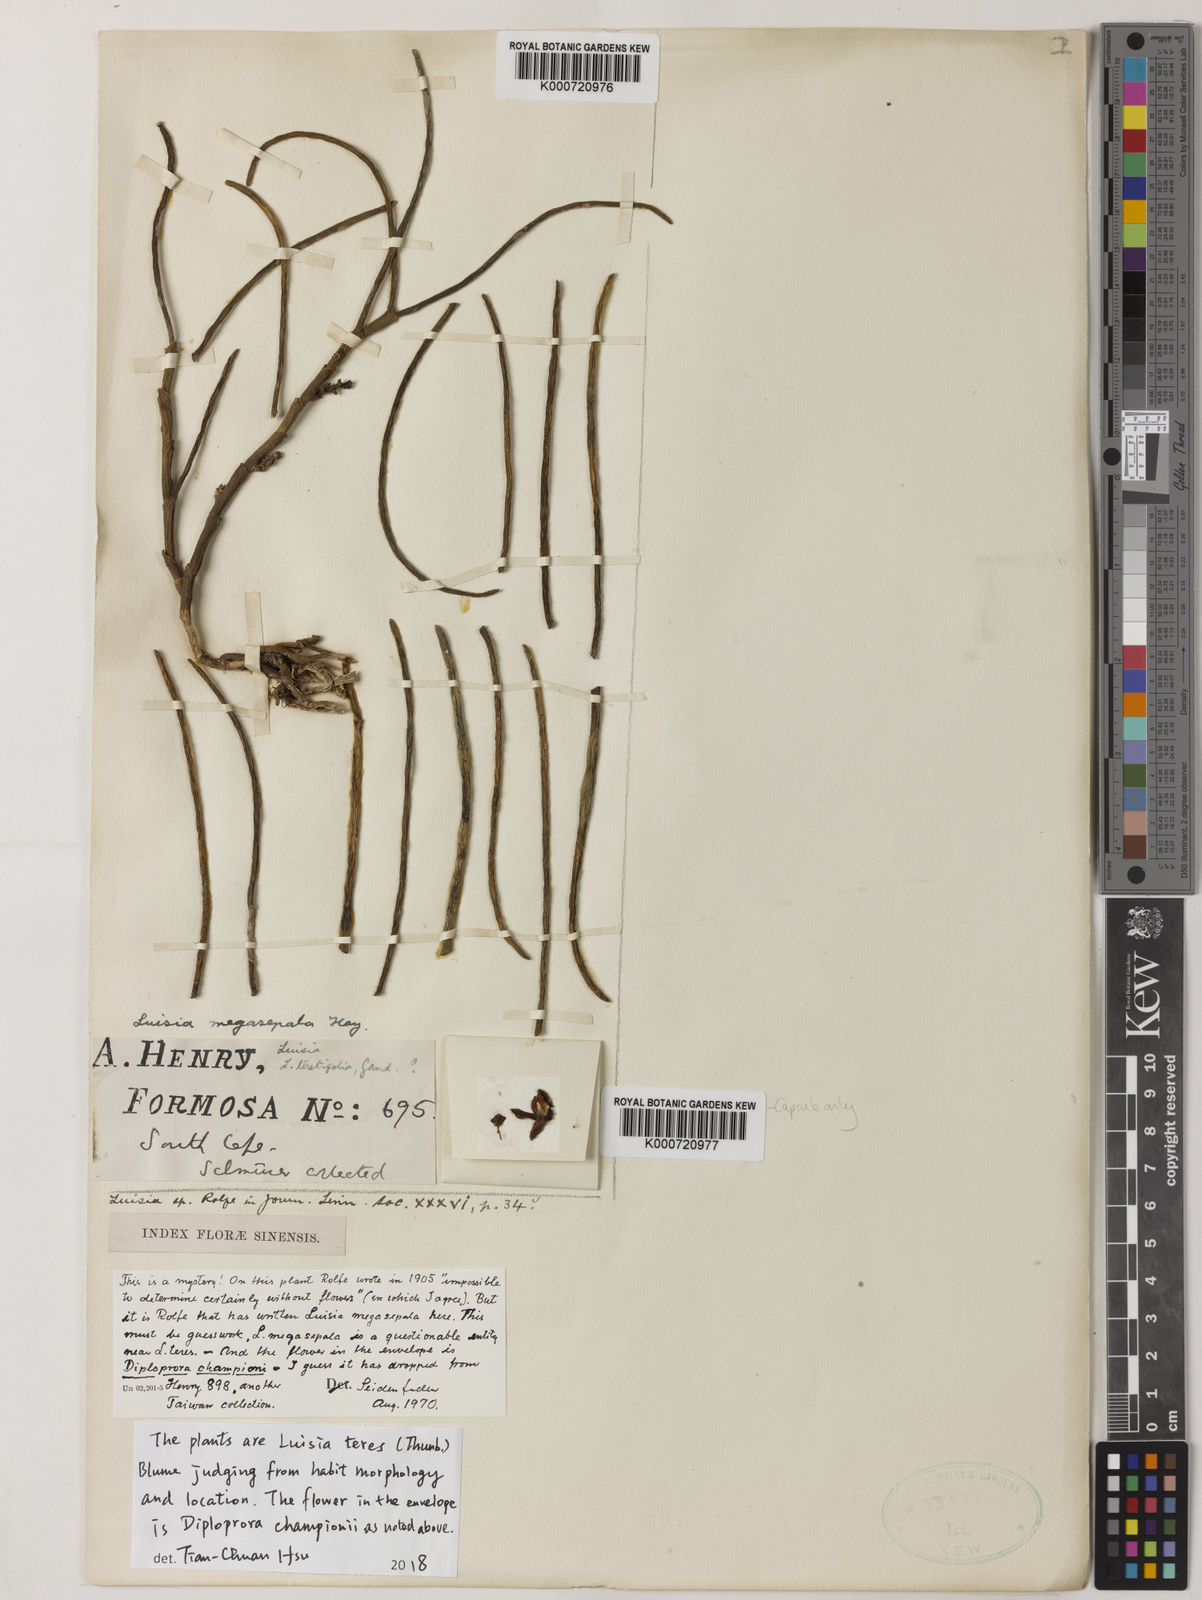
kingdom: Plantae
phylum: Tracheophyta
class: Liliopsida
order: Asparagales
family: Orchidaceae
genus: Luisia
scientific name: Luisia teres
